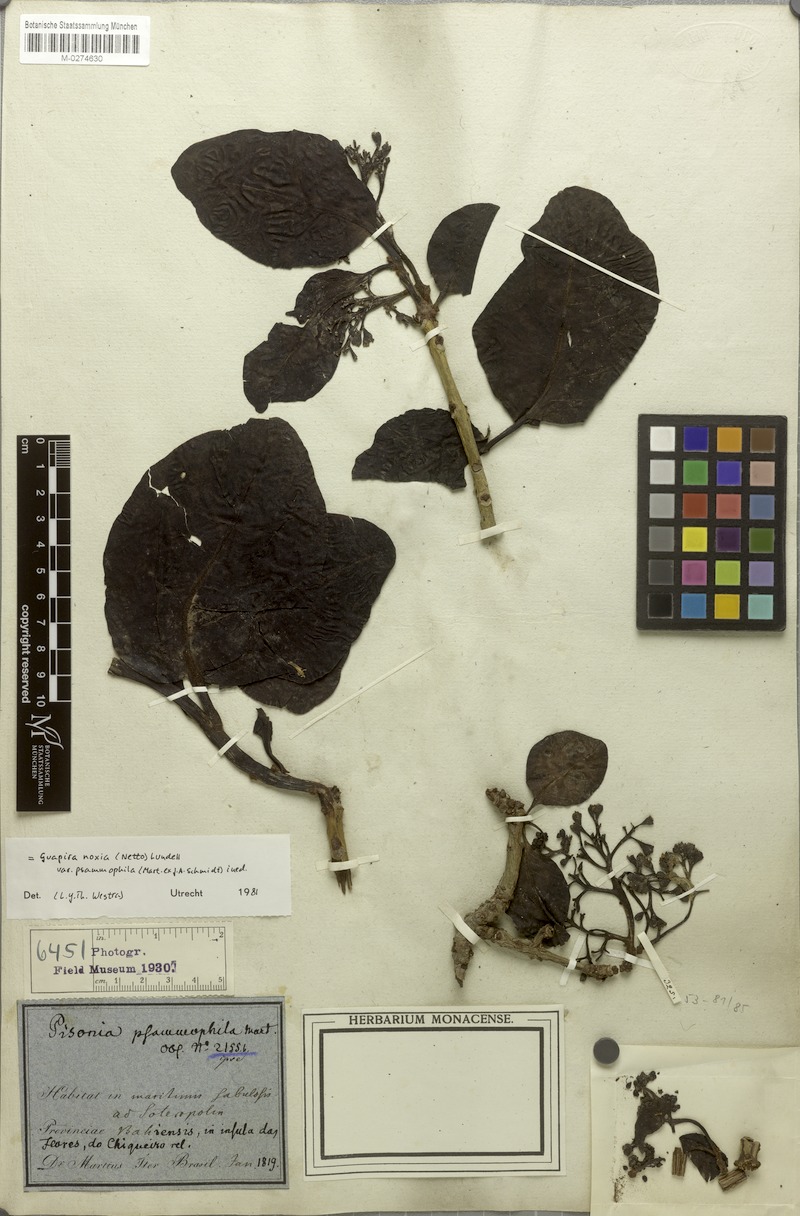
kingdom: Plantae
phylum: Tracheophyta
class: Magnoliopsida
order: Caryophyllales
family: Nyctaginaceae
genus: Guapira
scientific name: Guapira laxa
